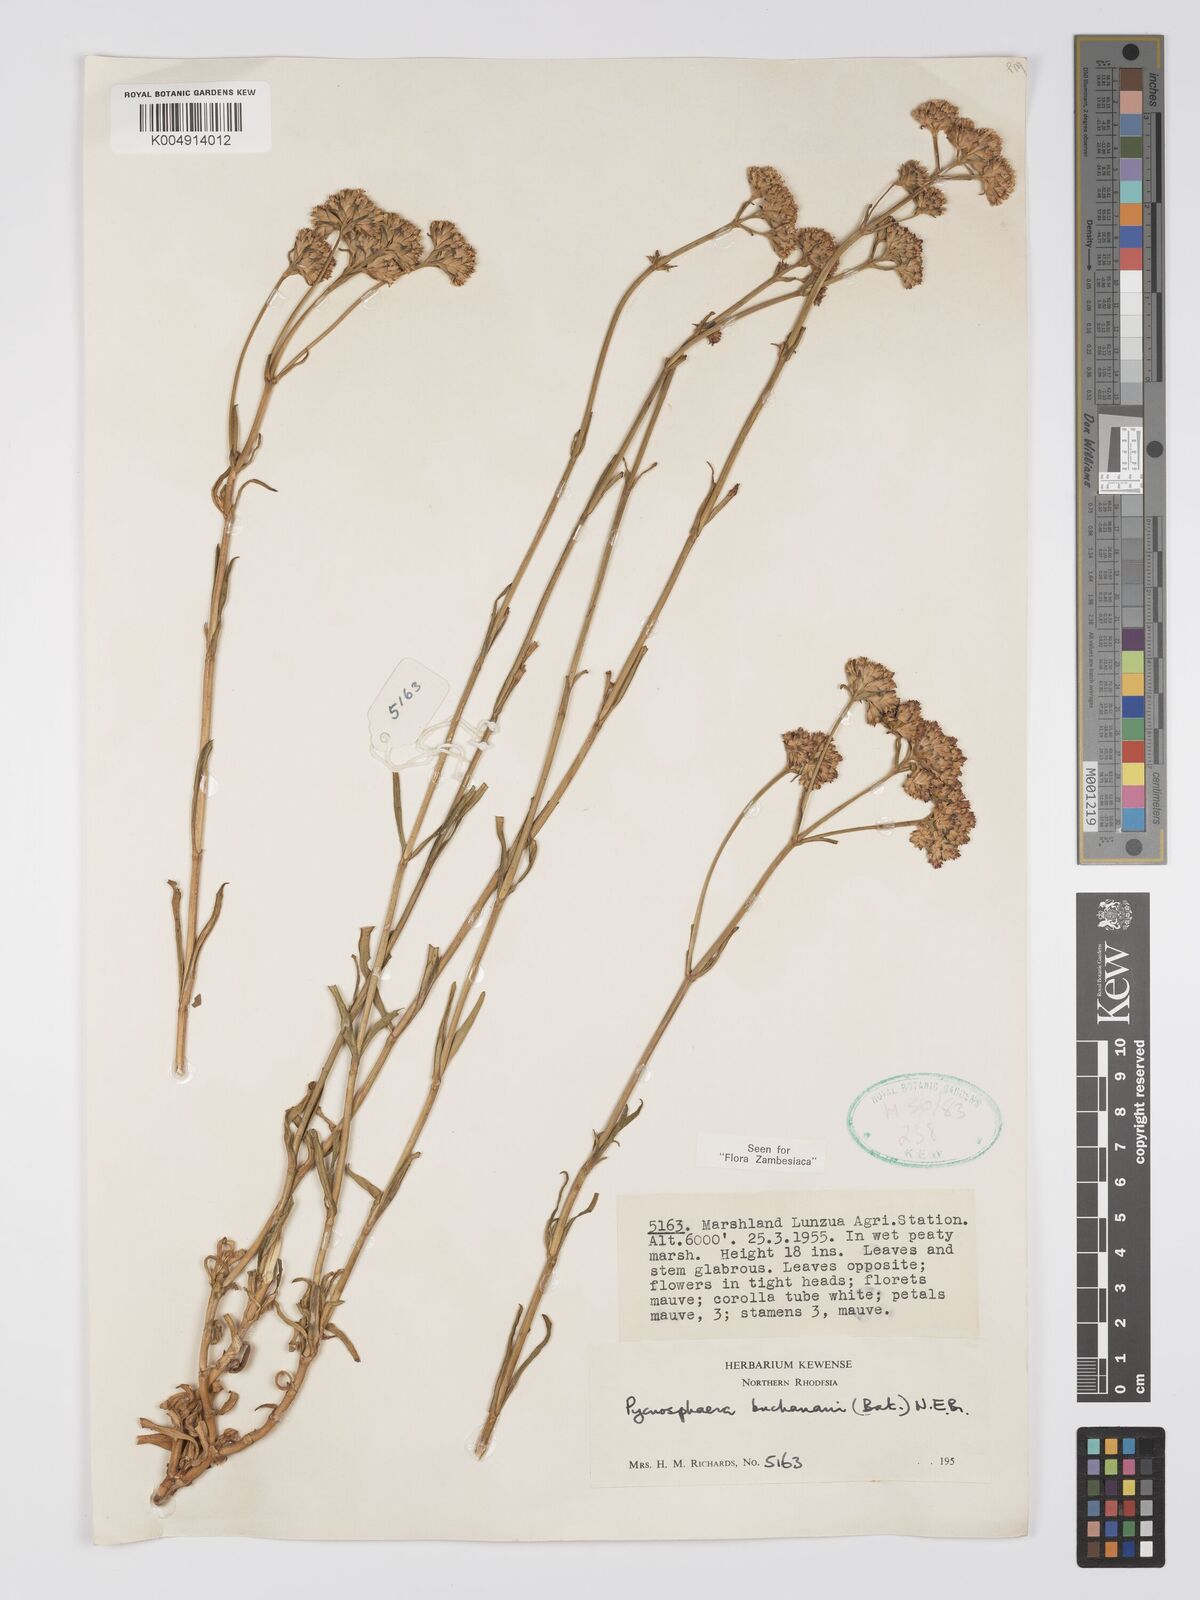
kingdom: Plantae
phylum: Tracheophyta
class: Magnoliopsida
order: Gentianales
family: Gentianaceae
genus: Pycnosphaera
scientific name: Pycnosphaera buchananii
